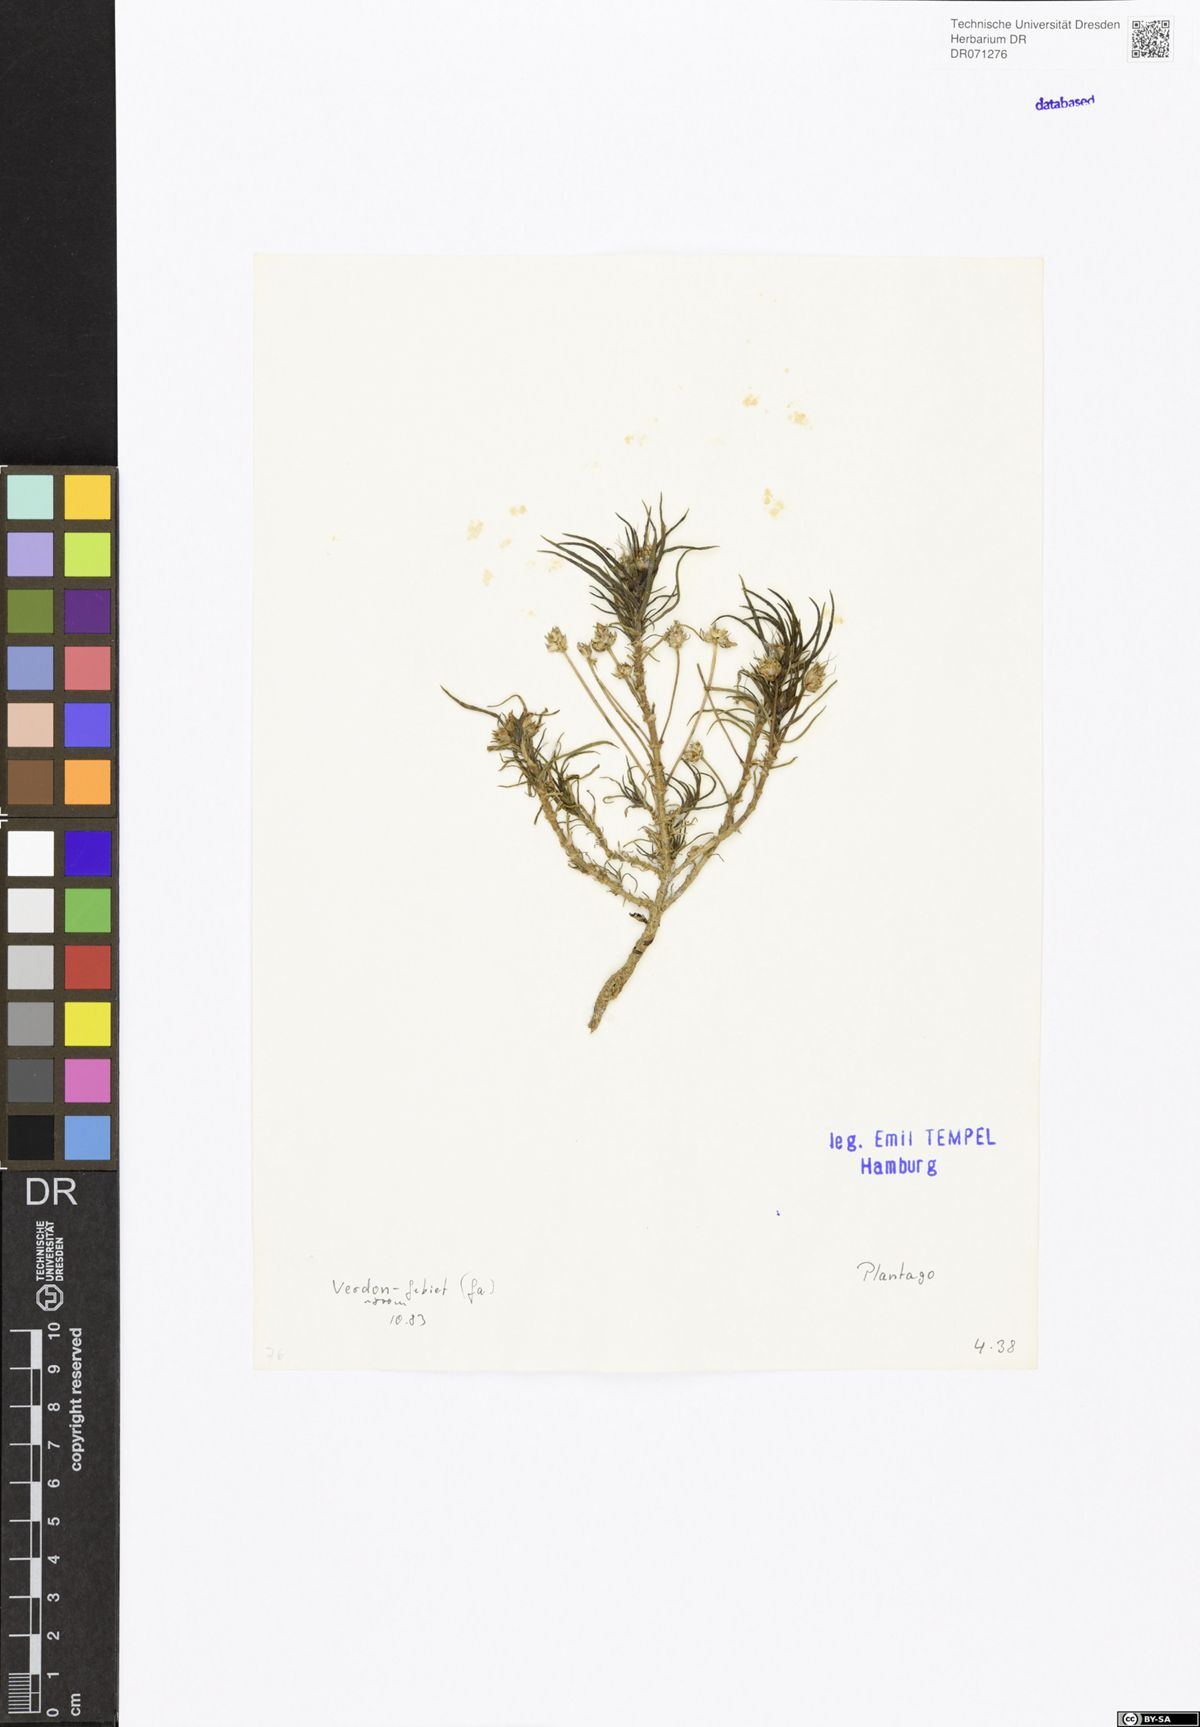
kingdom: Plantae
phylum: Tracheophyta
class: Magnoliopsida
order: Lamiales
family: Plantaginaceae
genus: Plantago
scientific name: Plantago
